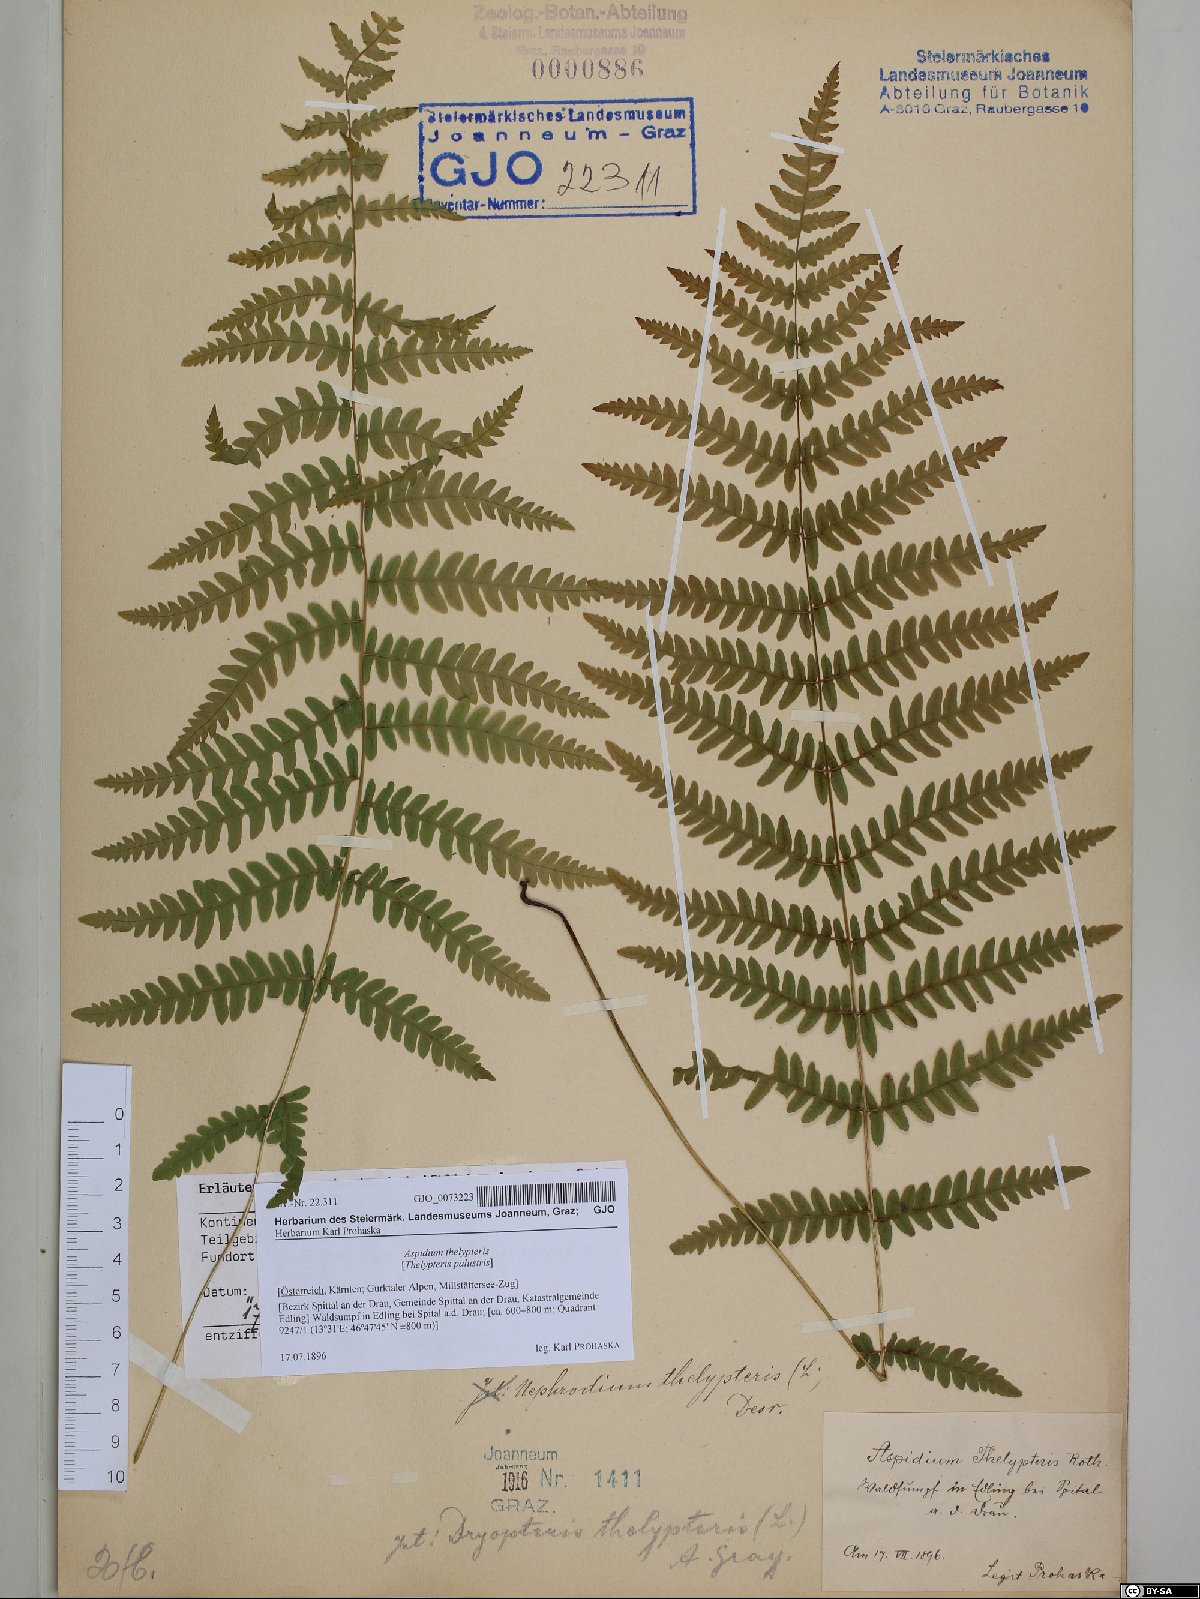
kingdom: Plantae
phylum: Tracheophyta
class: Polypodiopsida
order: Polypodiales
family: Thelypteridaceae
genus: Thelypteris
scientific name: Thelypteris palustris
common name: Marsh fern
